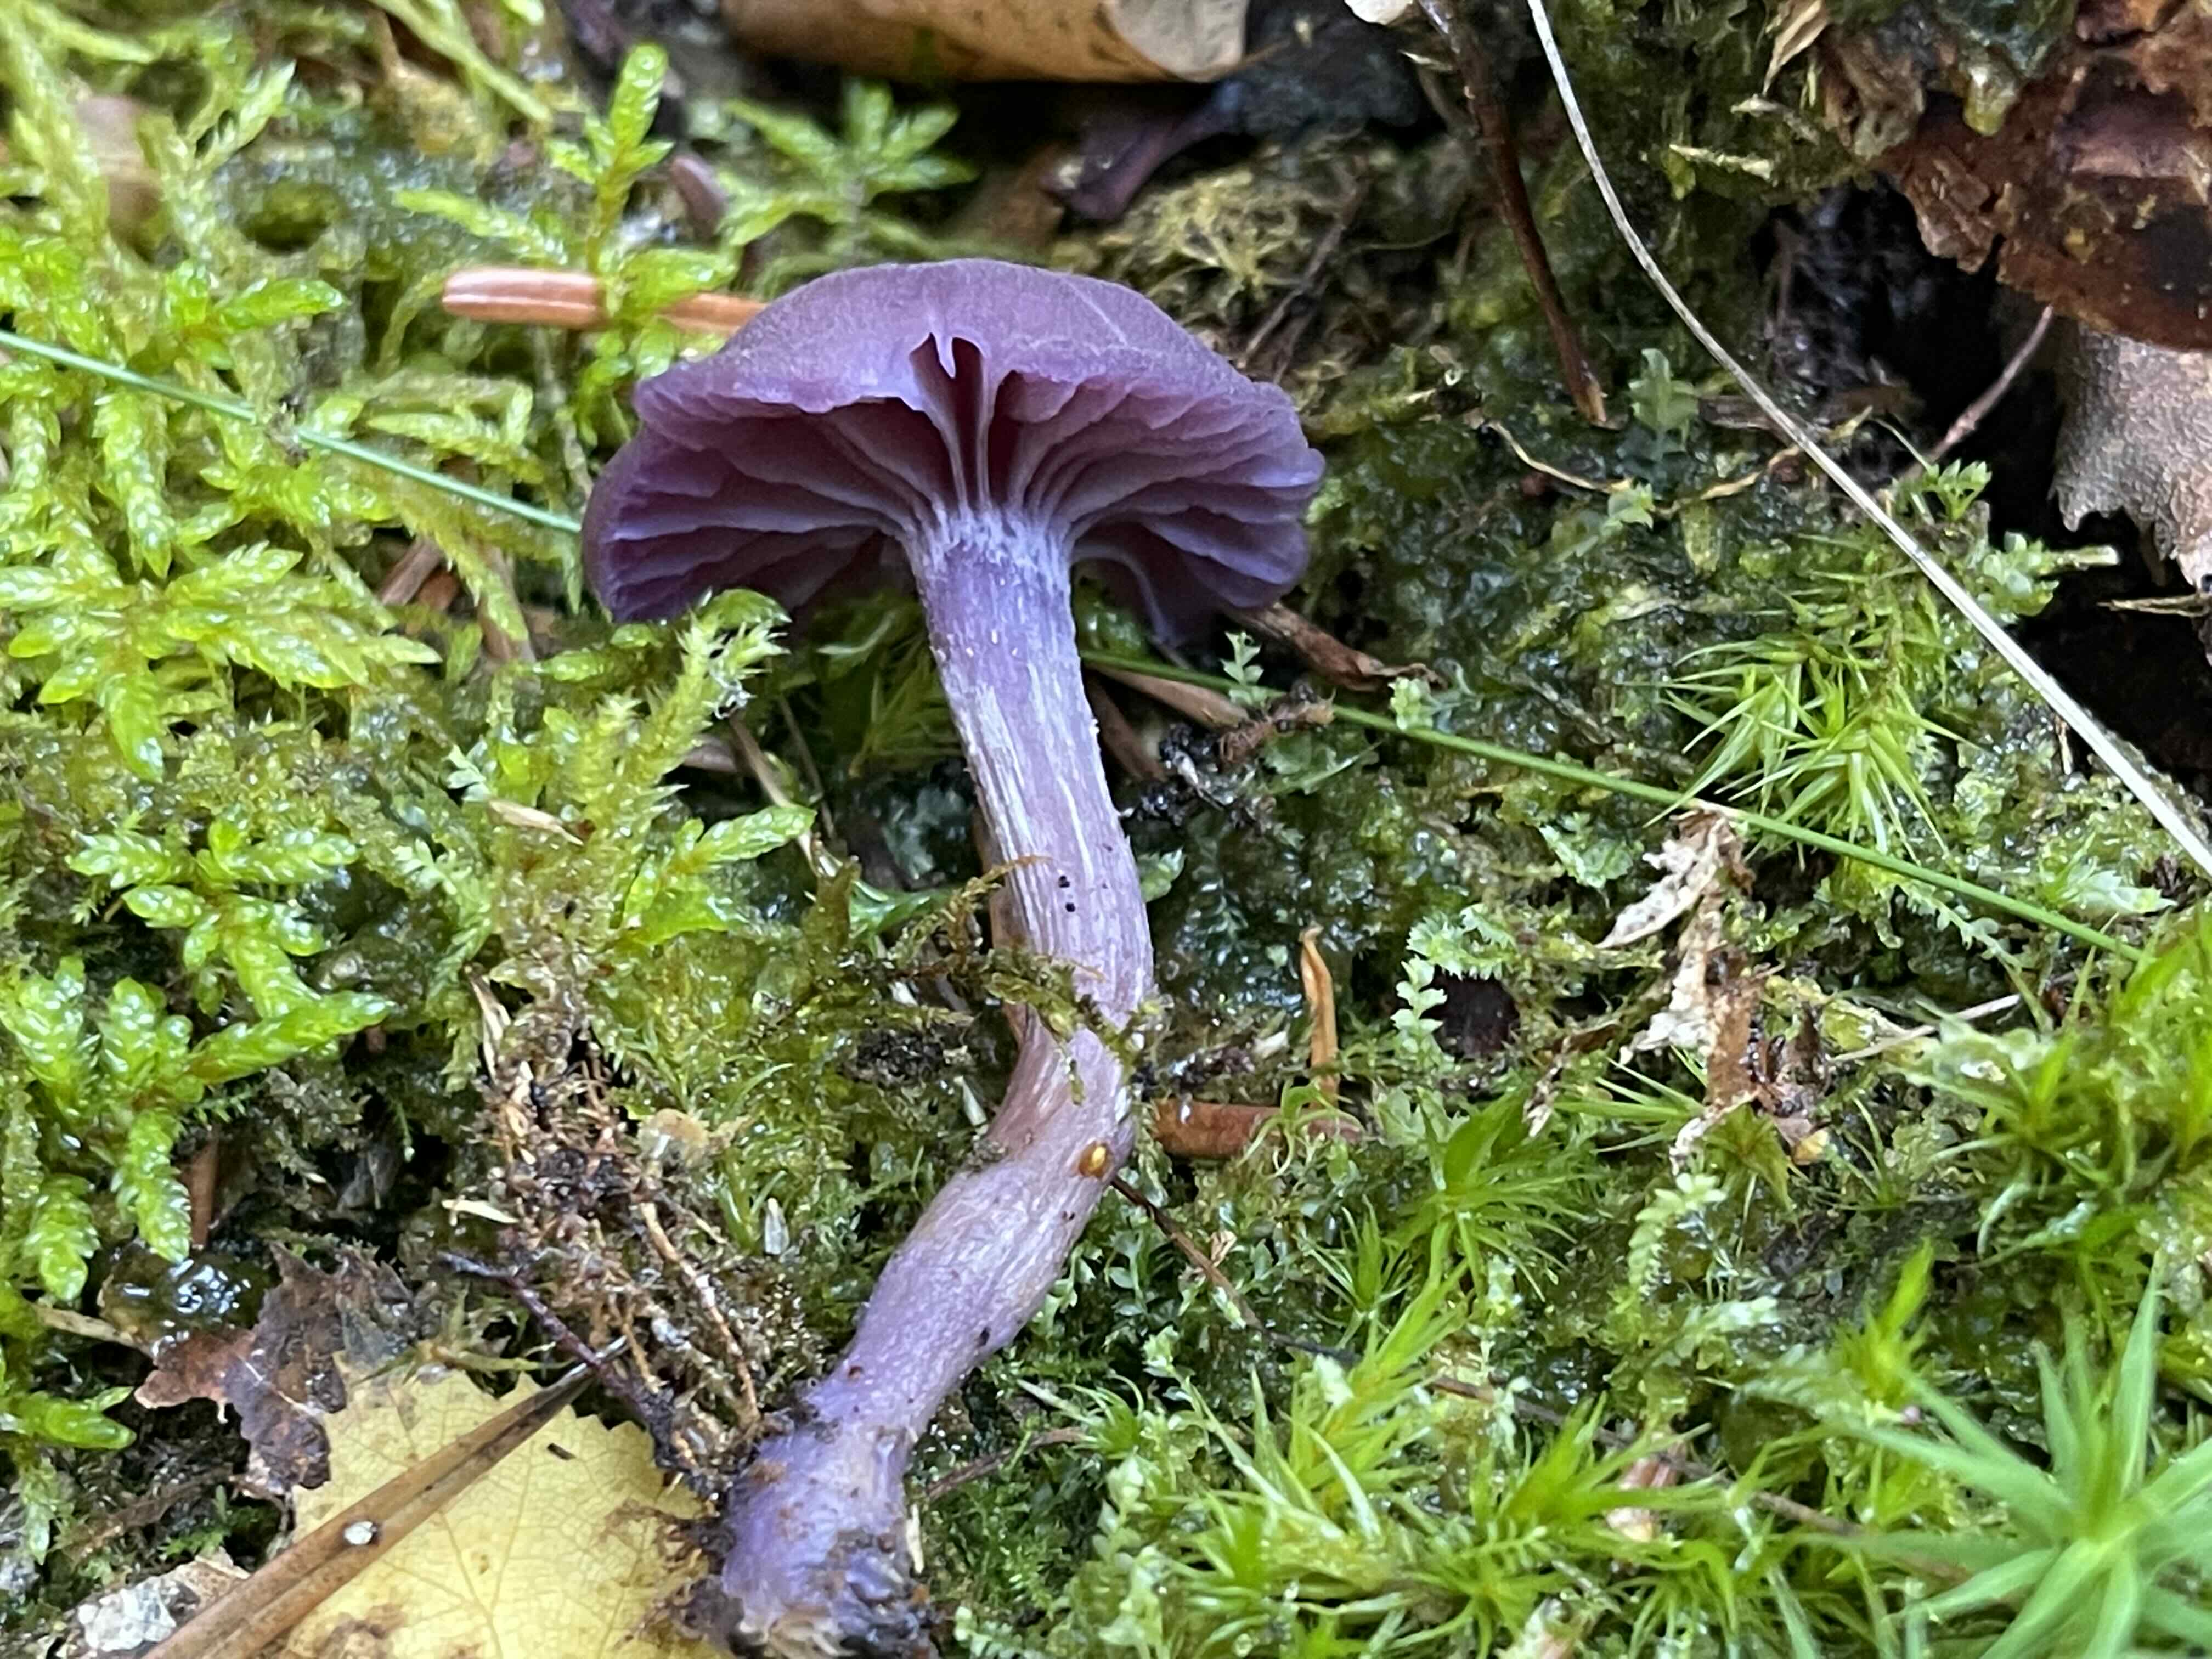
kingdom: Fungi
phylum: Basidiomycota
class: Agaricomycetes
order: Agaricales
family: Hydnangiaceae
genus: Laccaria
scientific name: Laccaria amethystina
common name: violet ametysthat
